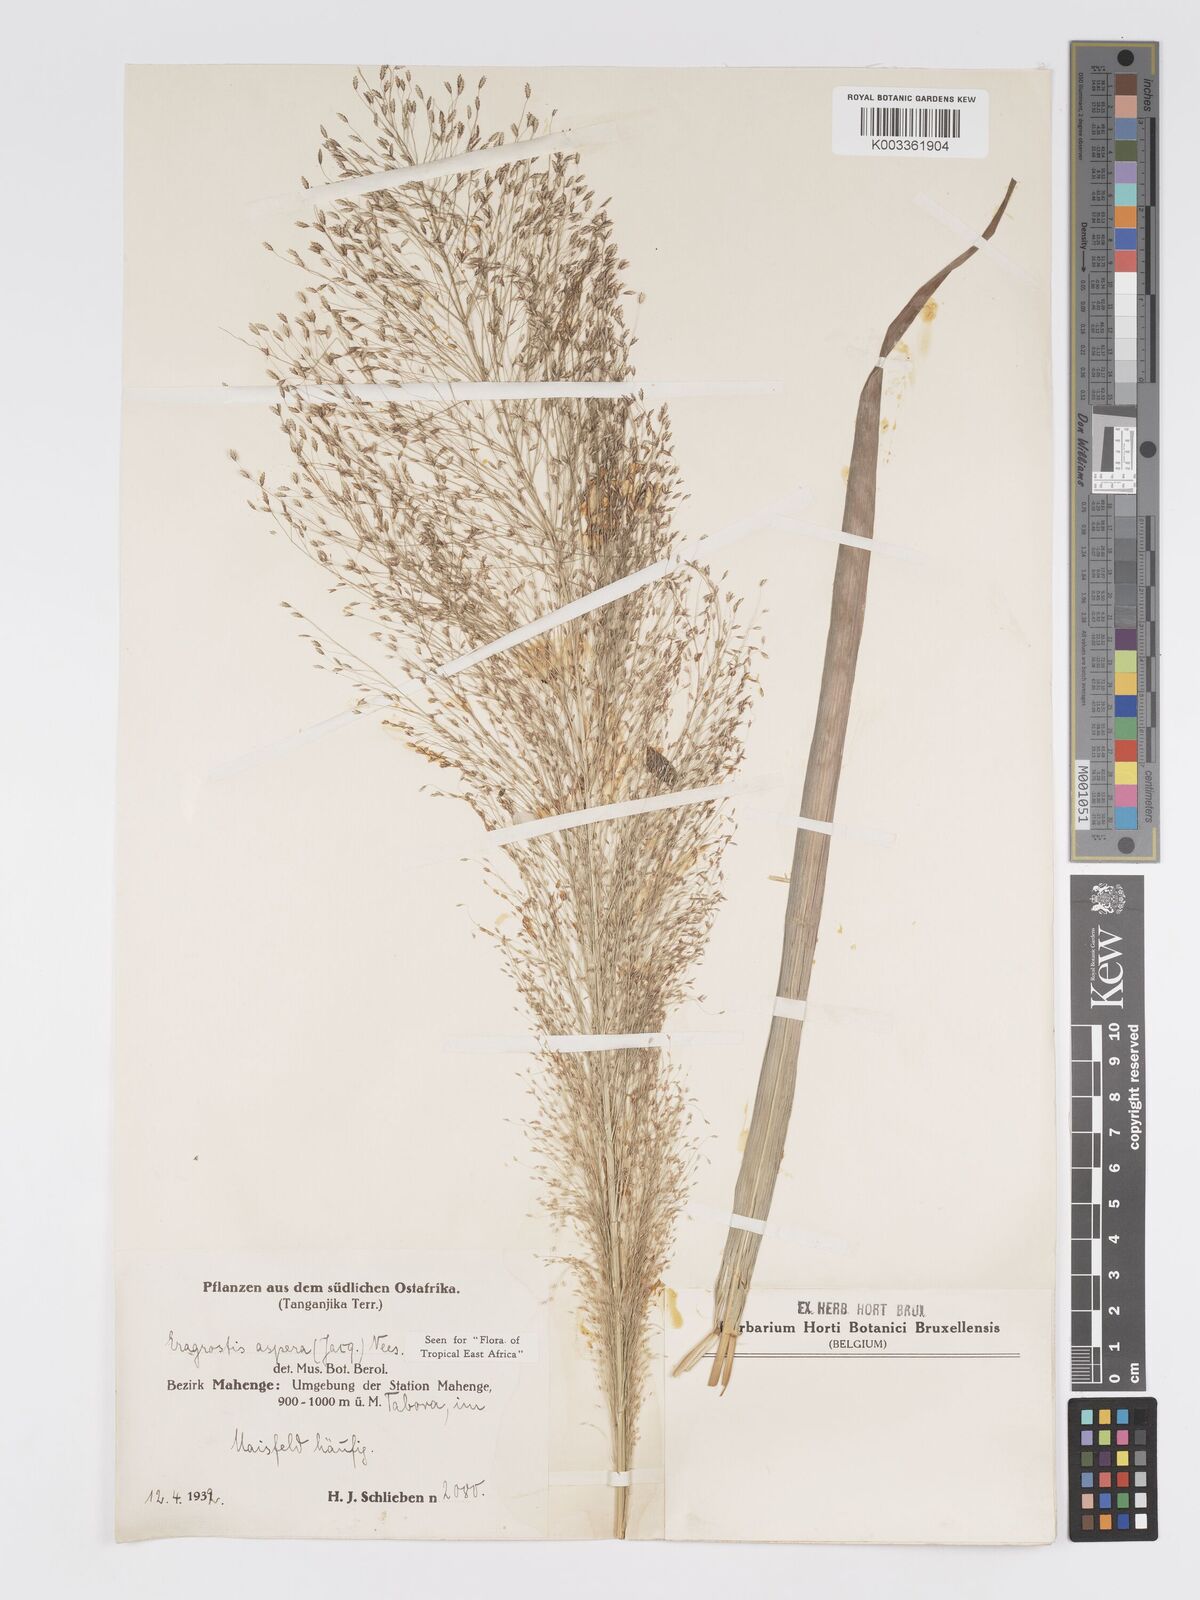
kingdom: Plantae
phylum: Tracheophyta
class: Liliopsida
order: Poales
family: Poaceae
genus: Eragrostis
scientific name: Eragrostis aspera
